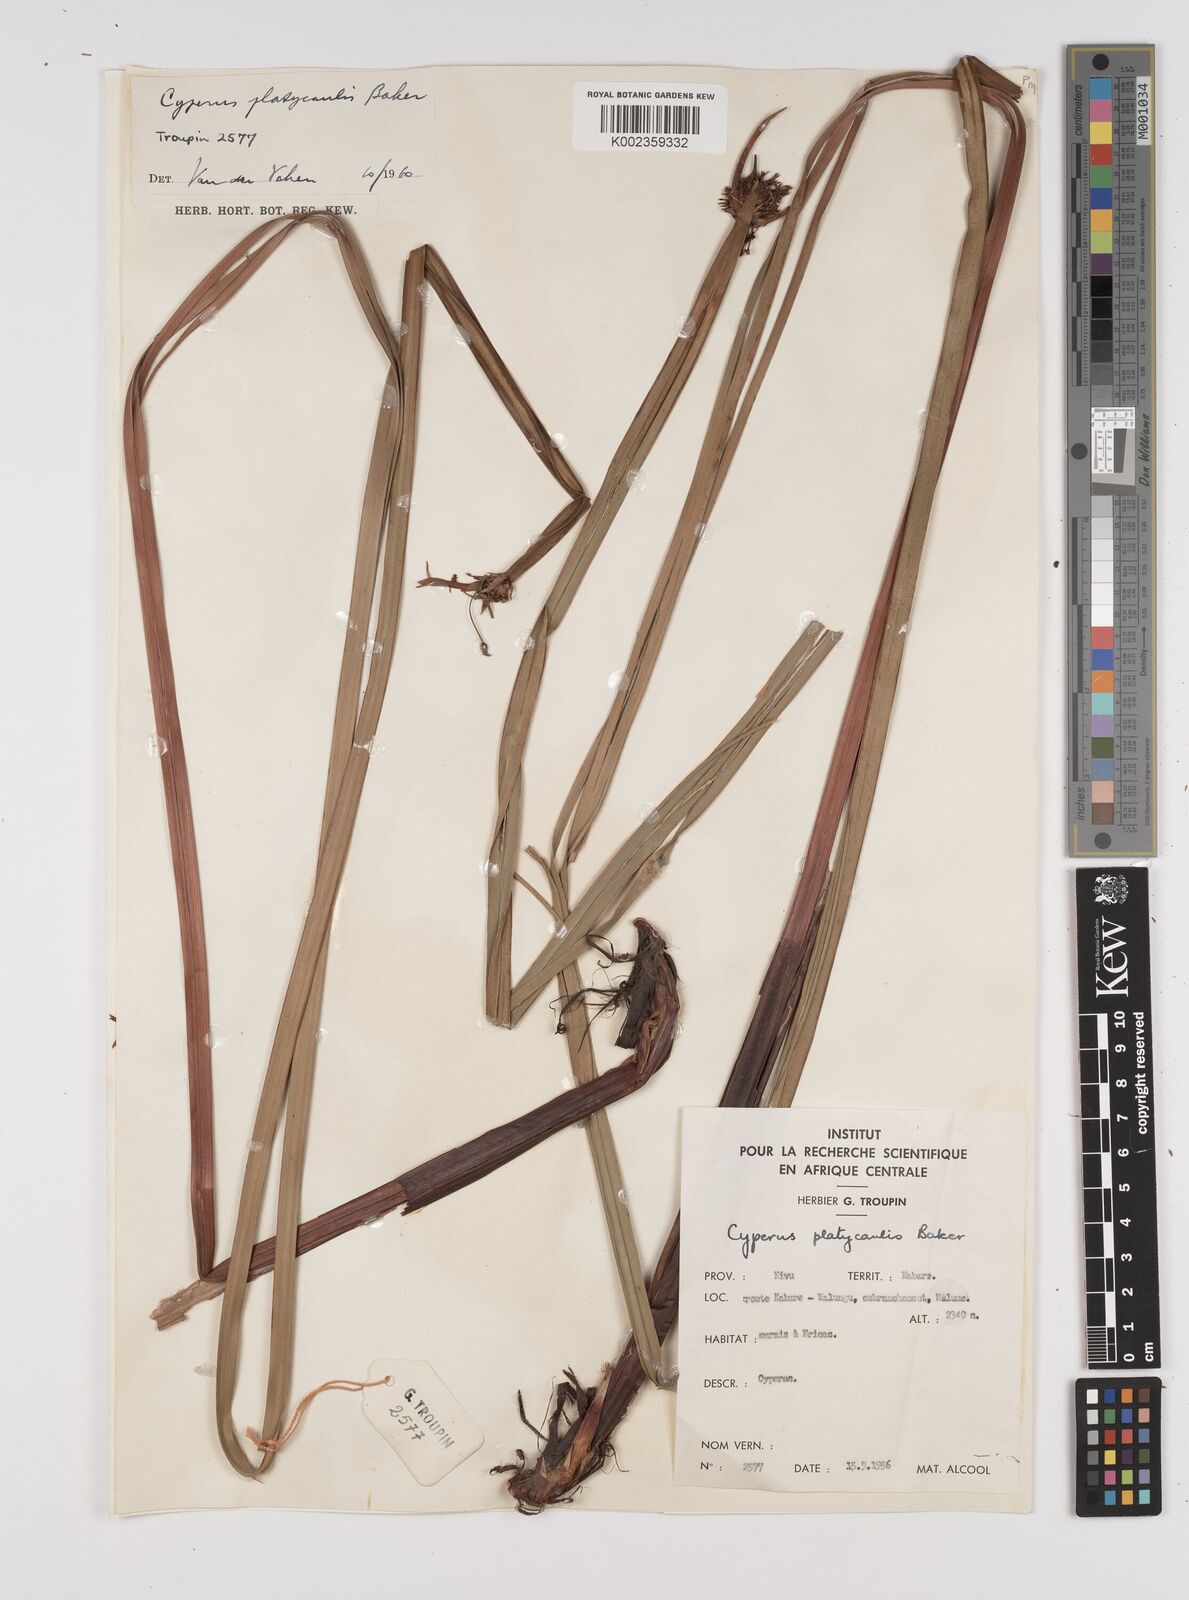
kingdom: Plantae
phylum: Tracheophyta
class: Liliopsida
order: Poales
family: Cyperaceae
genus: Cyperus
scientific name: Cyperus platycaulis
